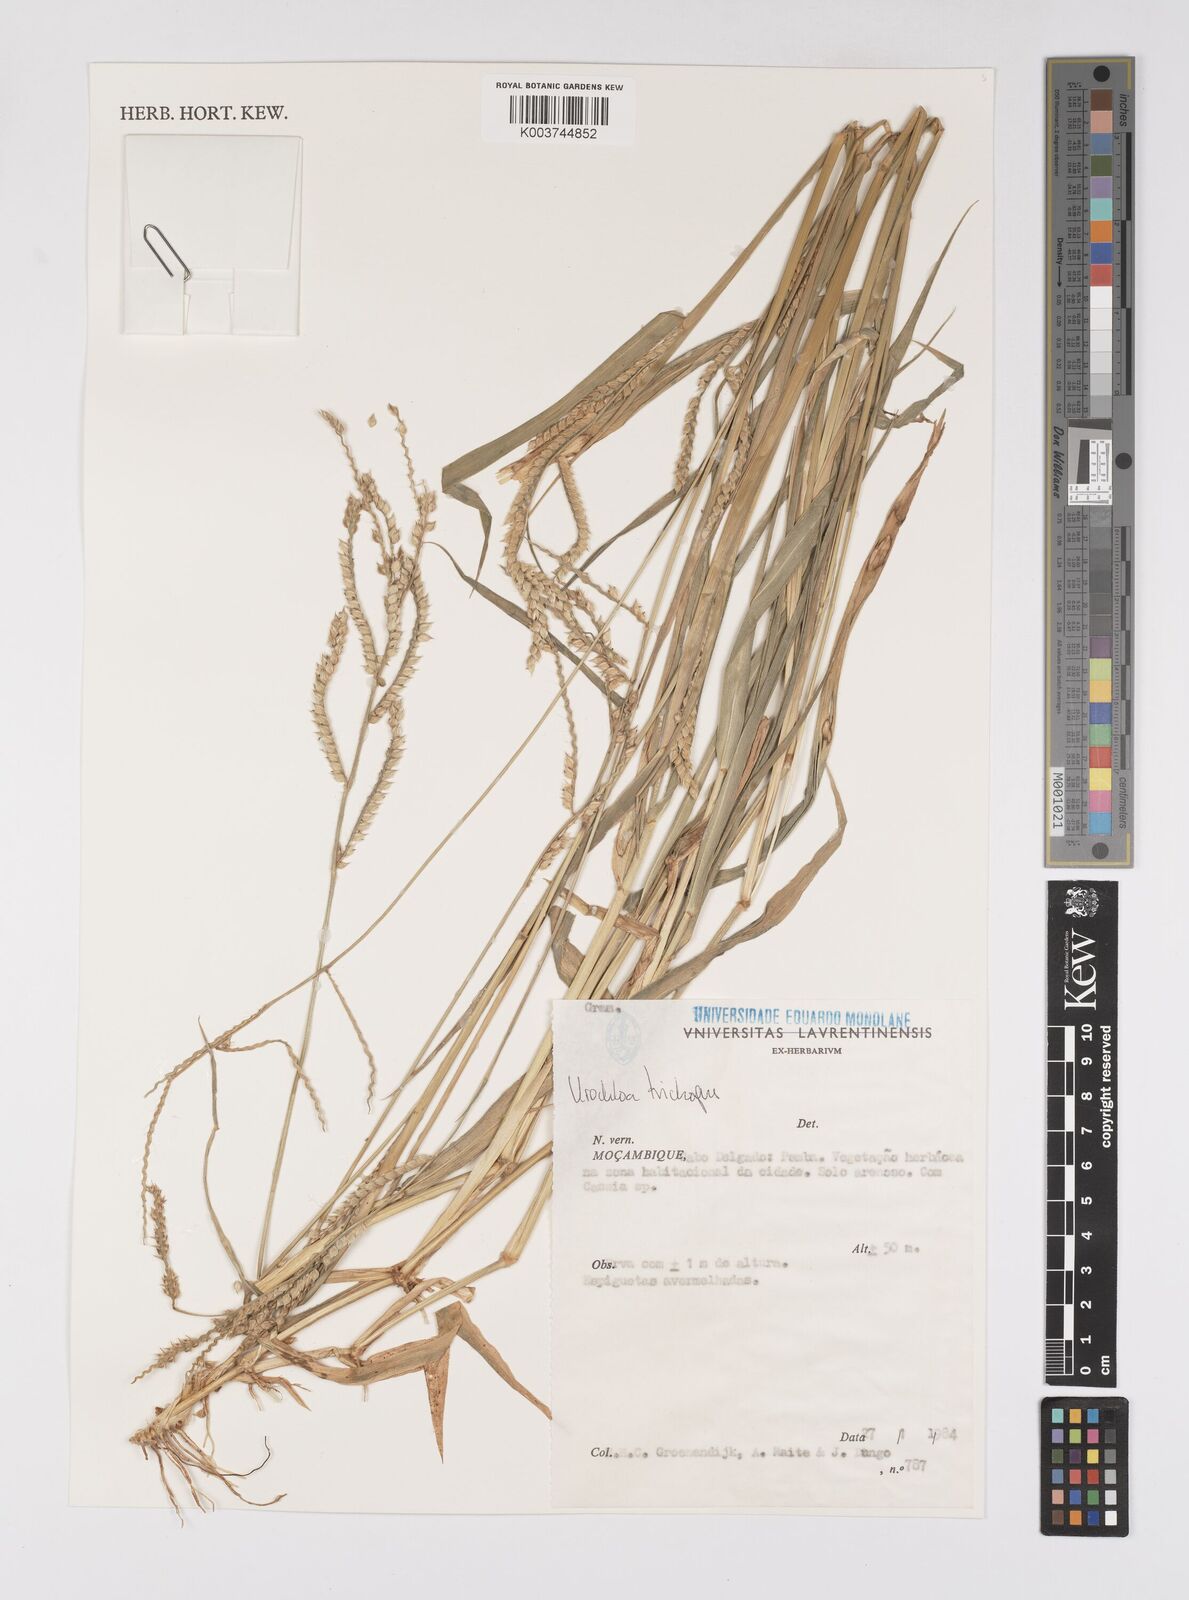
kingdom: Plantae
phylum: Tracheophyta
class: Liliopsida
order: Poales
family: Poaceae
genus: Urochloa
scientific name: Urochloa trichopus
